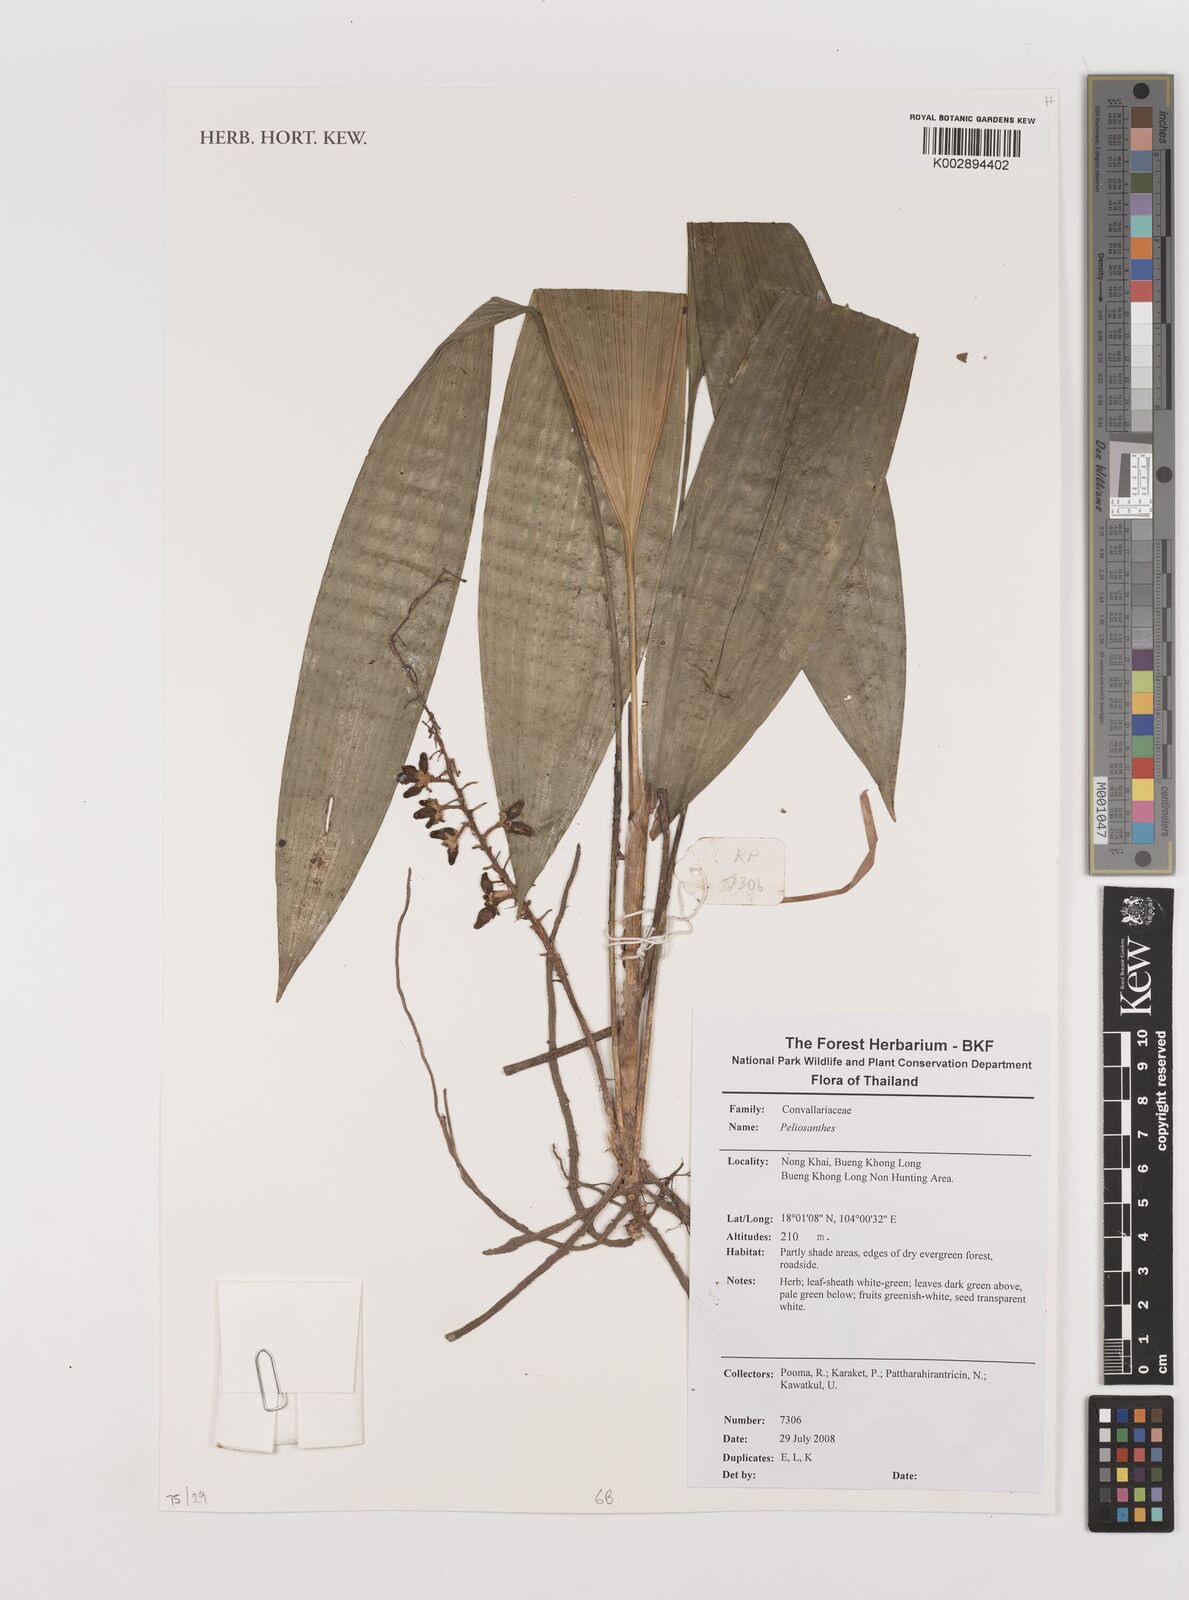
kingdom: Plantae
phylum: Tracheophyta
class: Liliopsida
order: Asparagales
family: Asparagaceae
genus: Peliosanthes
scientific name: Peliosanthes
